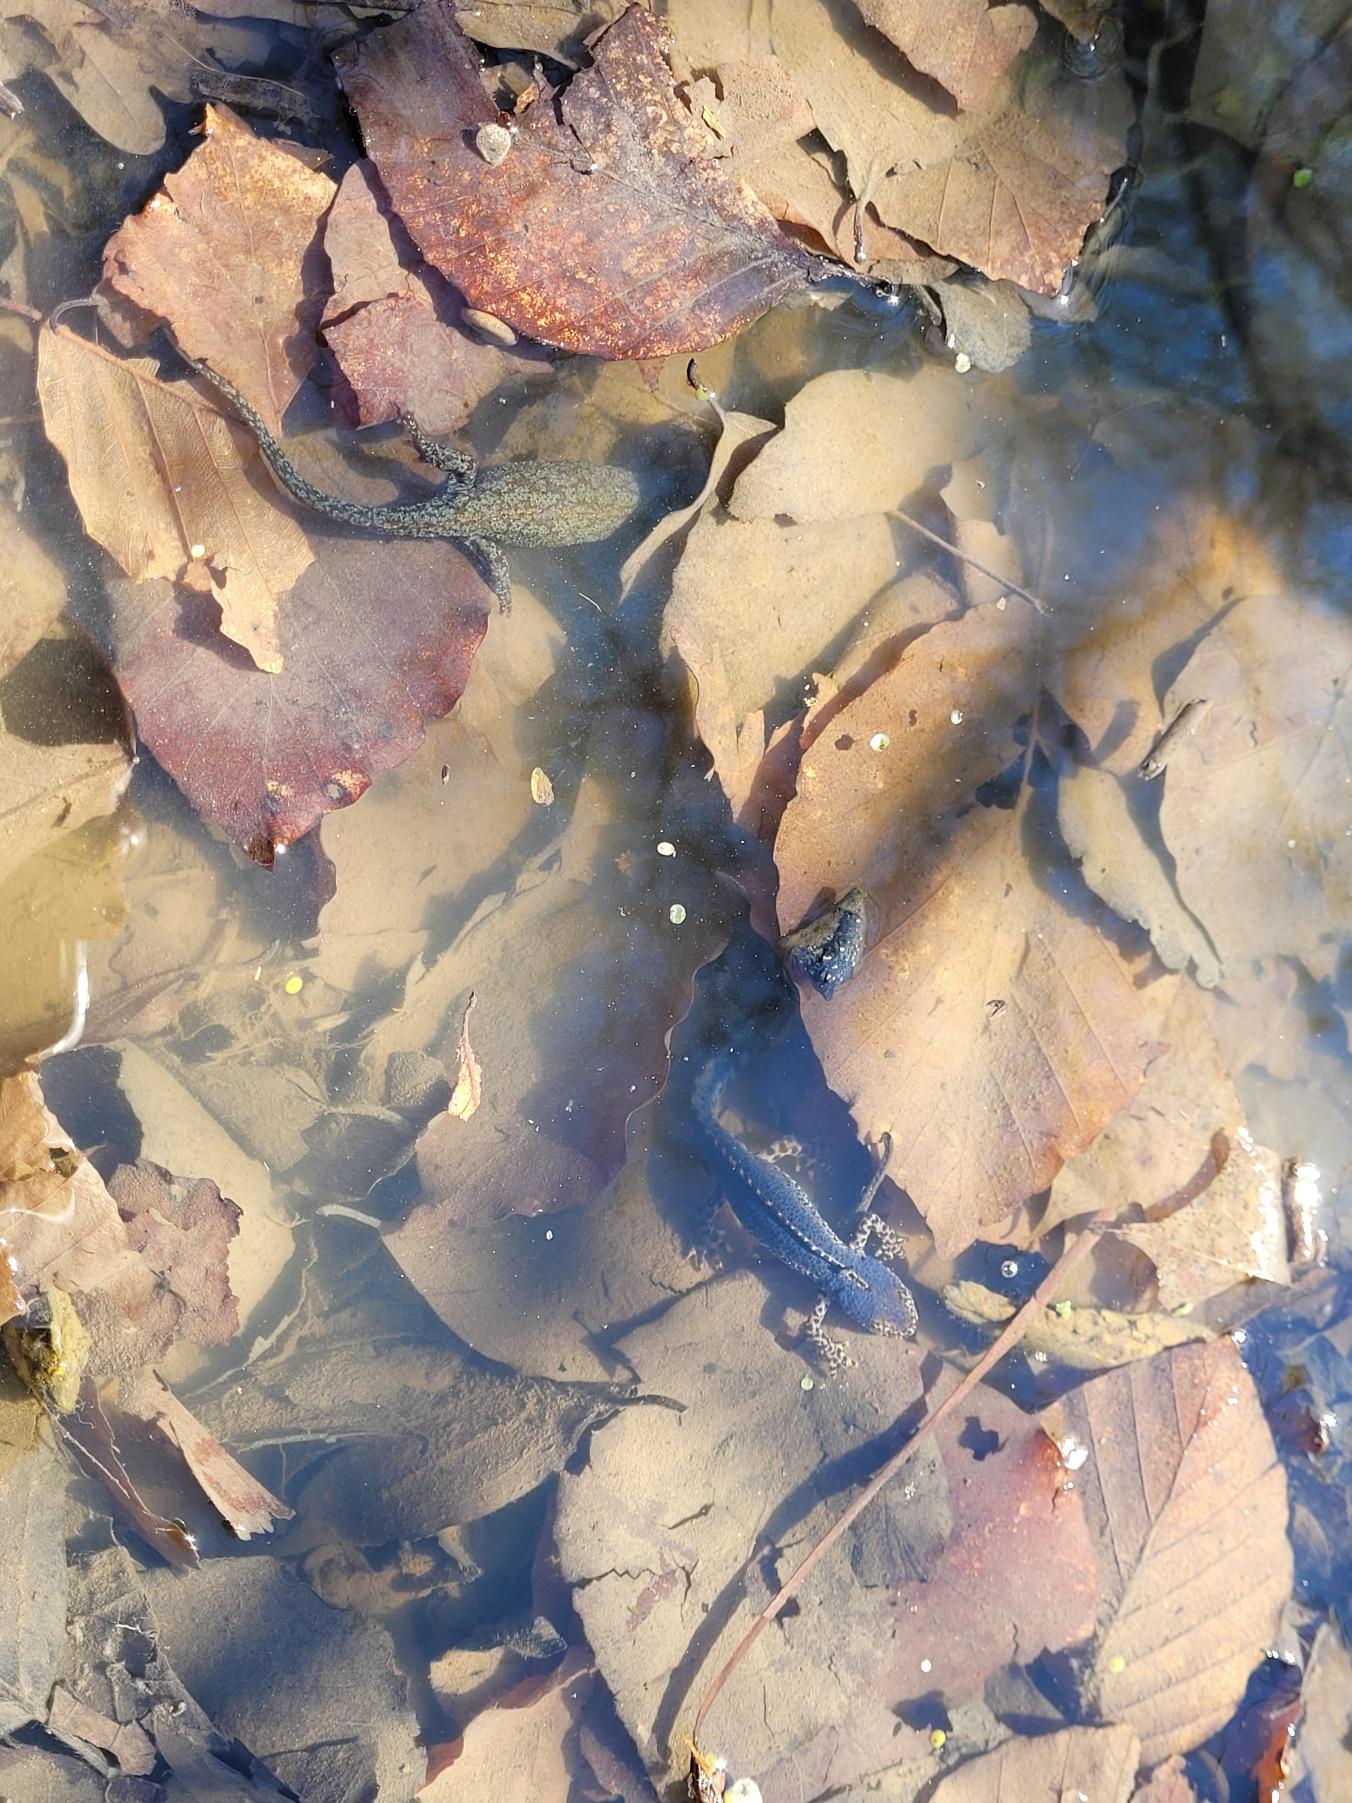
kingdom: Animalia
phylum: Chordata
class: Amphibia
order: Caudata
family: Salamandridae
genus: Ichthyosaura
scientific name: Ichthyosaura alpestris
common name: Bjergsalamander
